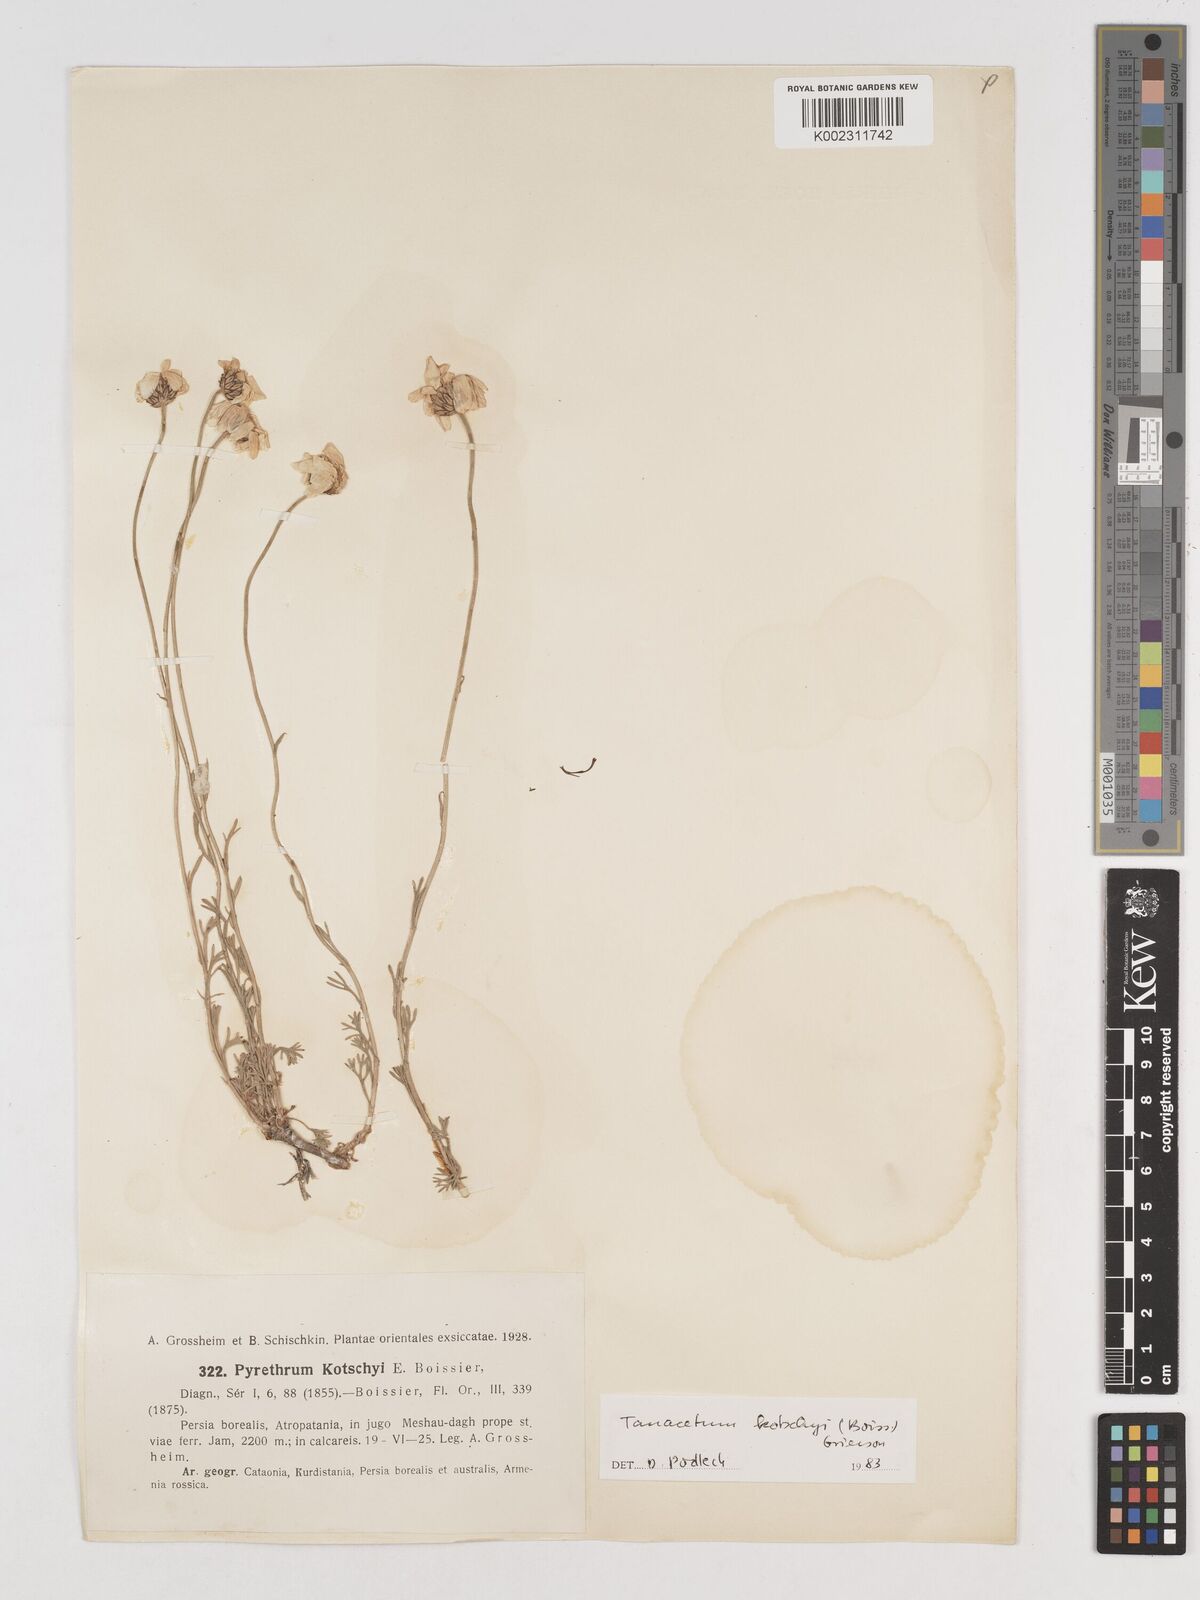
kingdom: Plantae
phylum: Tracheophyta
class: Magnoliopsida
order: Asterales
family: Asteraceae
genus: Tanacetum
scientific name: Tanacetum polycephalum
